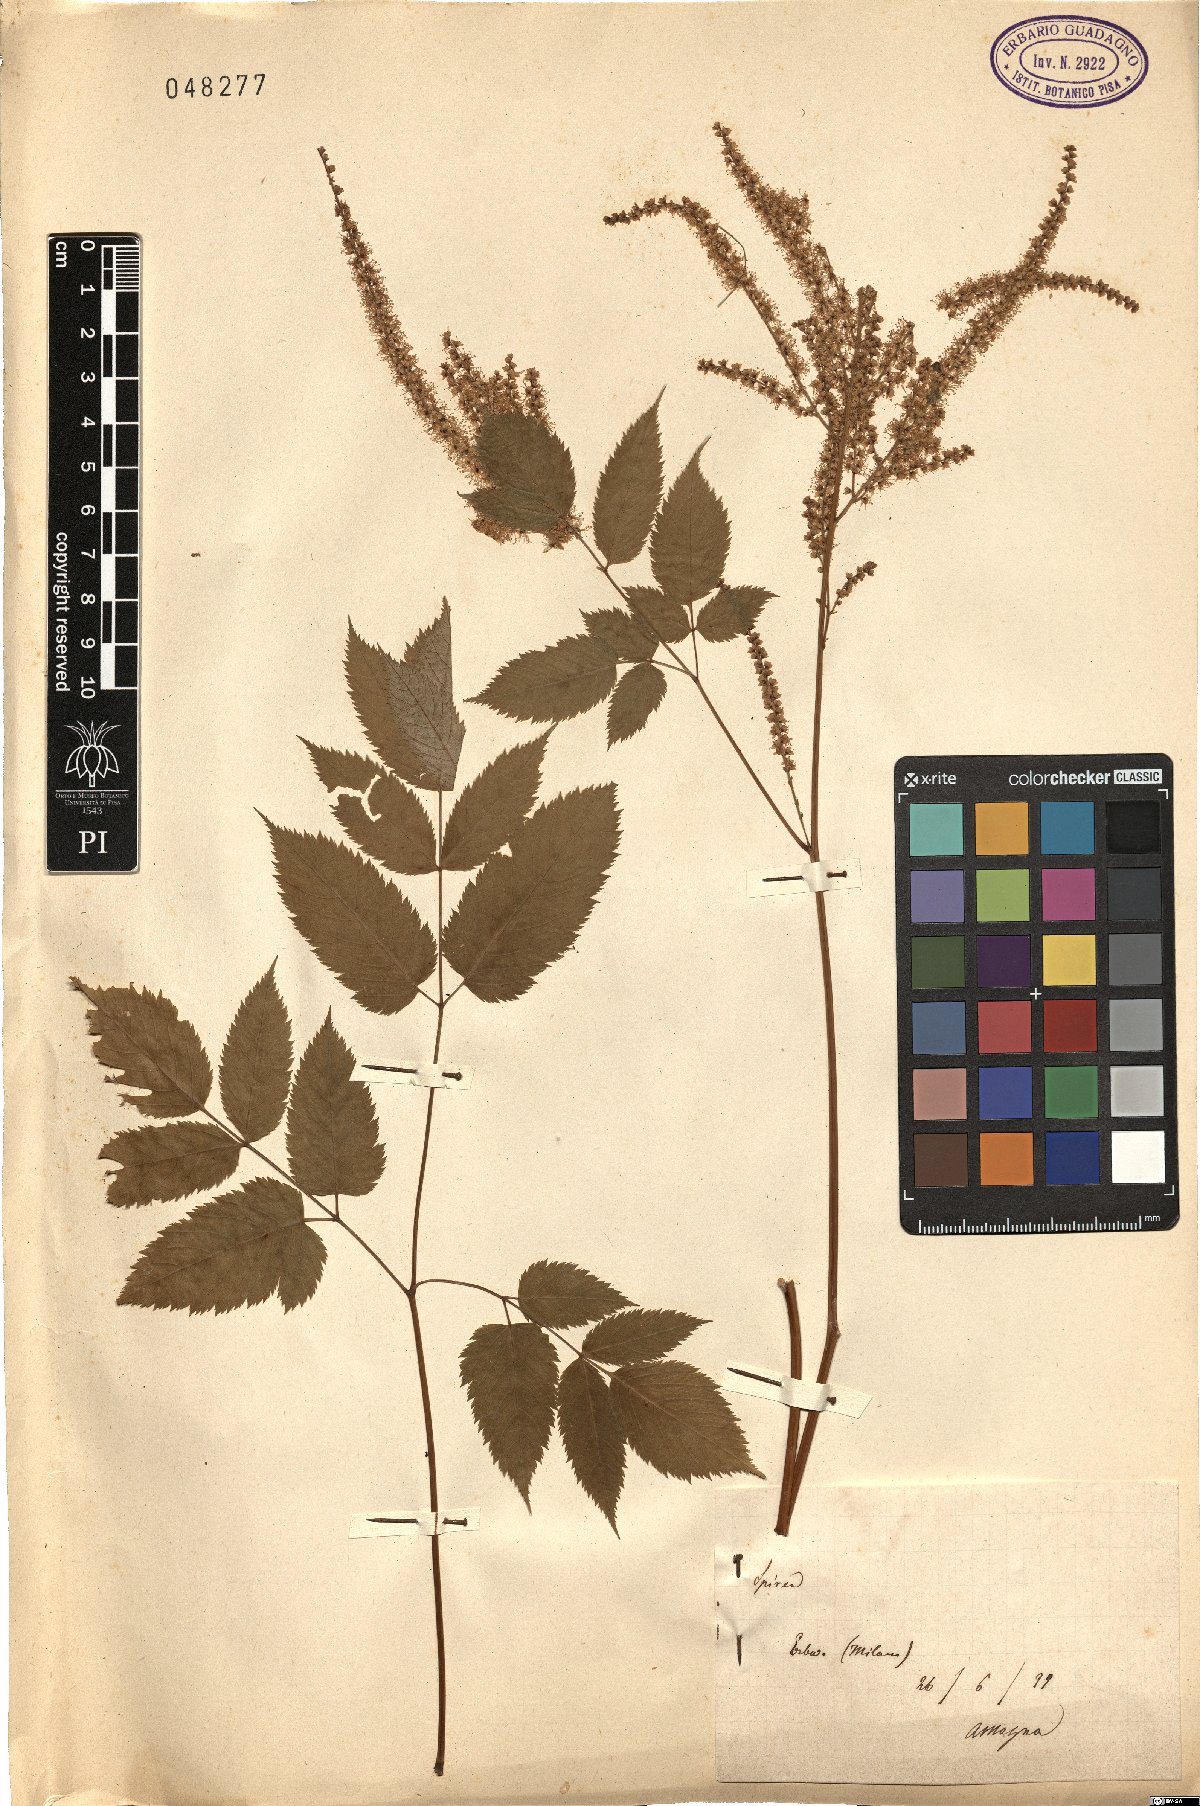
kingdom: Plantae
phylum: Tracheophyta
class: Magnoliopsida
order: Rosales
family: Rosaceae
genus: Spiraea
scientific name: Spiraea
